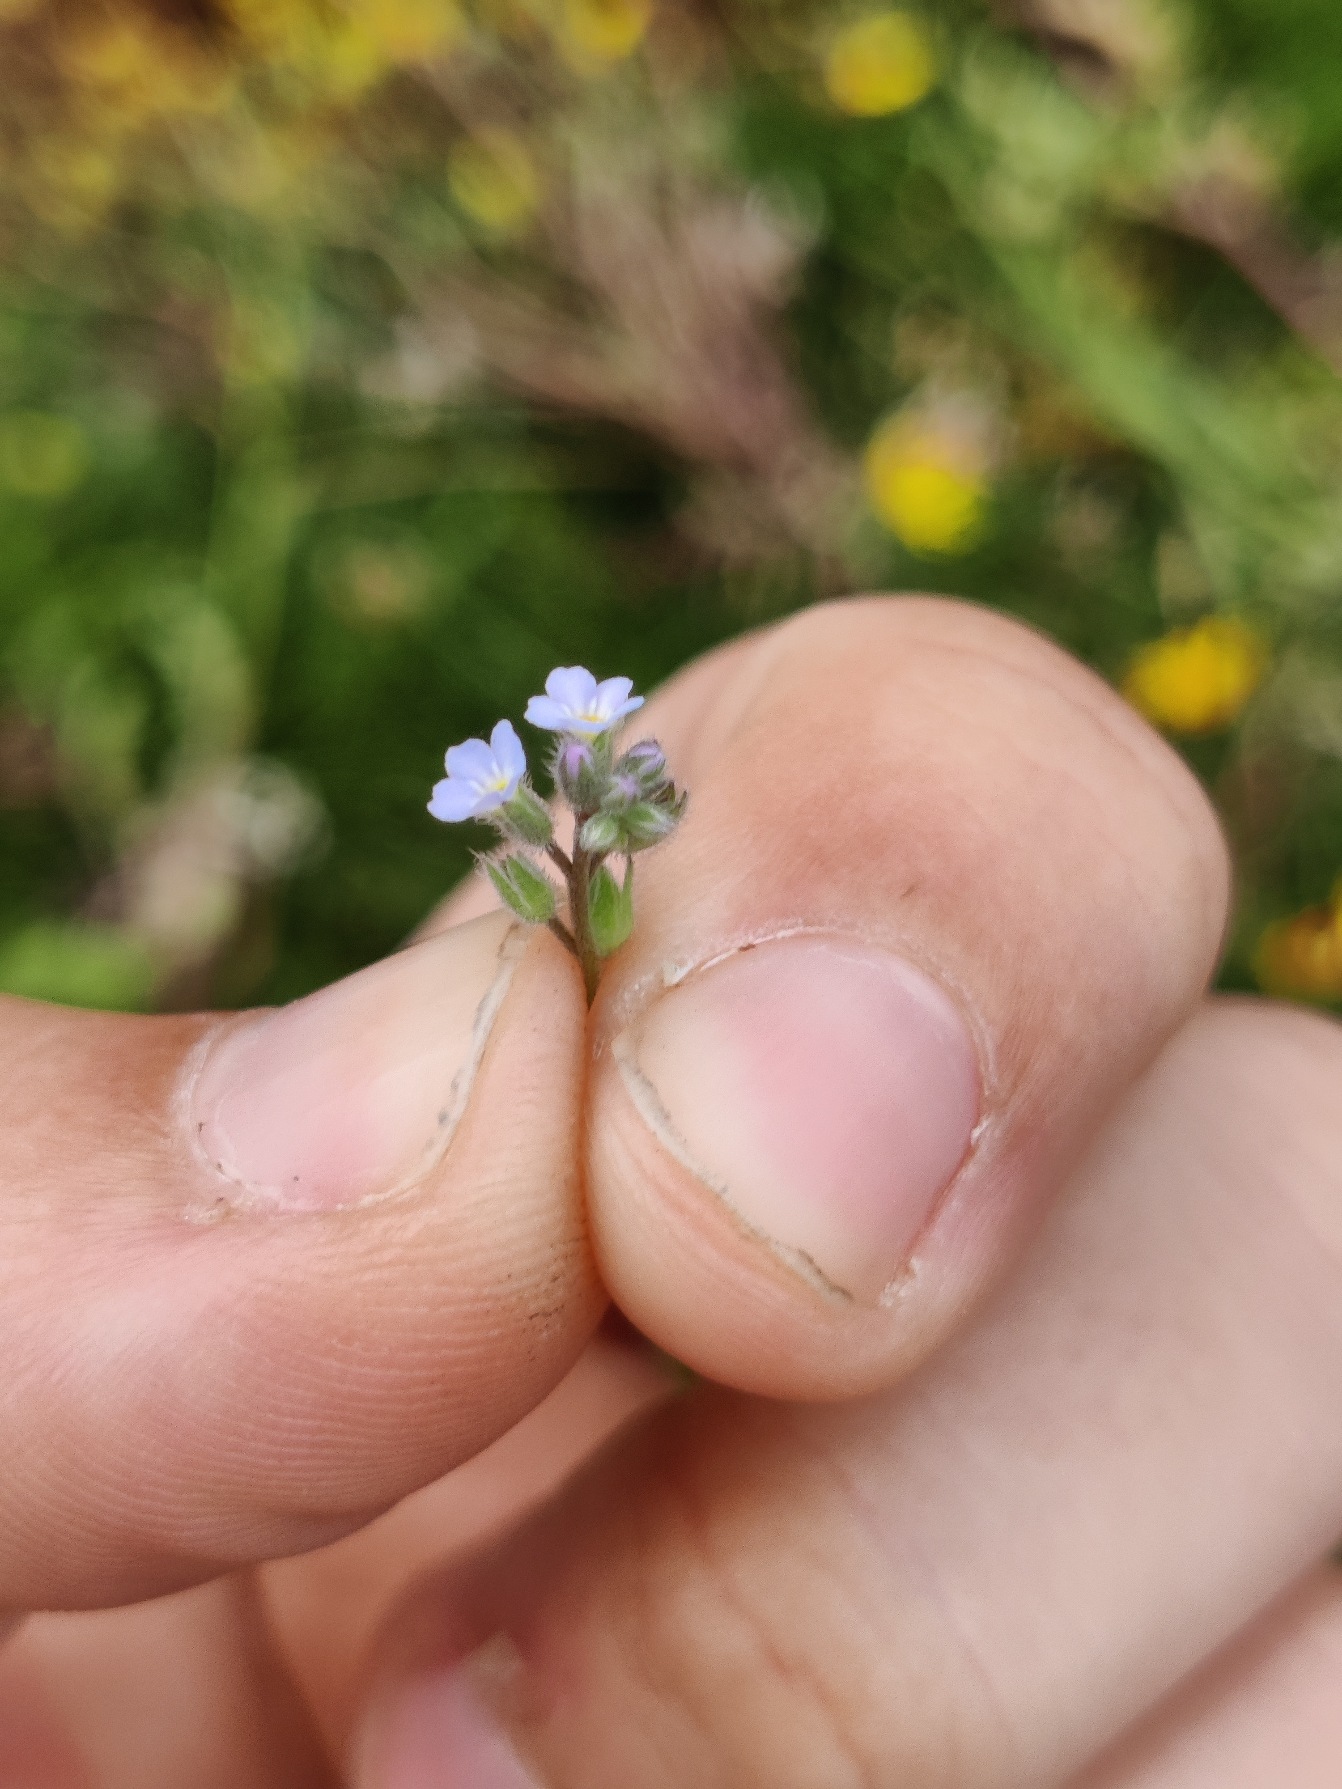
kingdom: Plantae
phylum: Tracheophyta
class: Magnoliopsida
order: Boraginales
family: Boraginaceae
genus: Myosotis
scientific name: Myosotis arvensis
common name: Mark-forglemmigej
